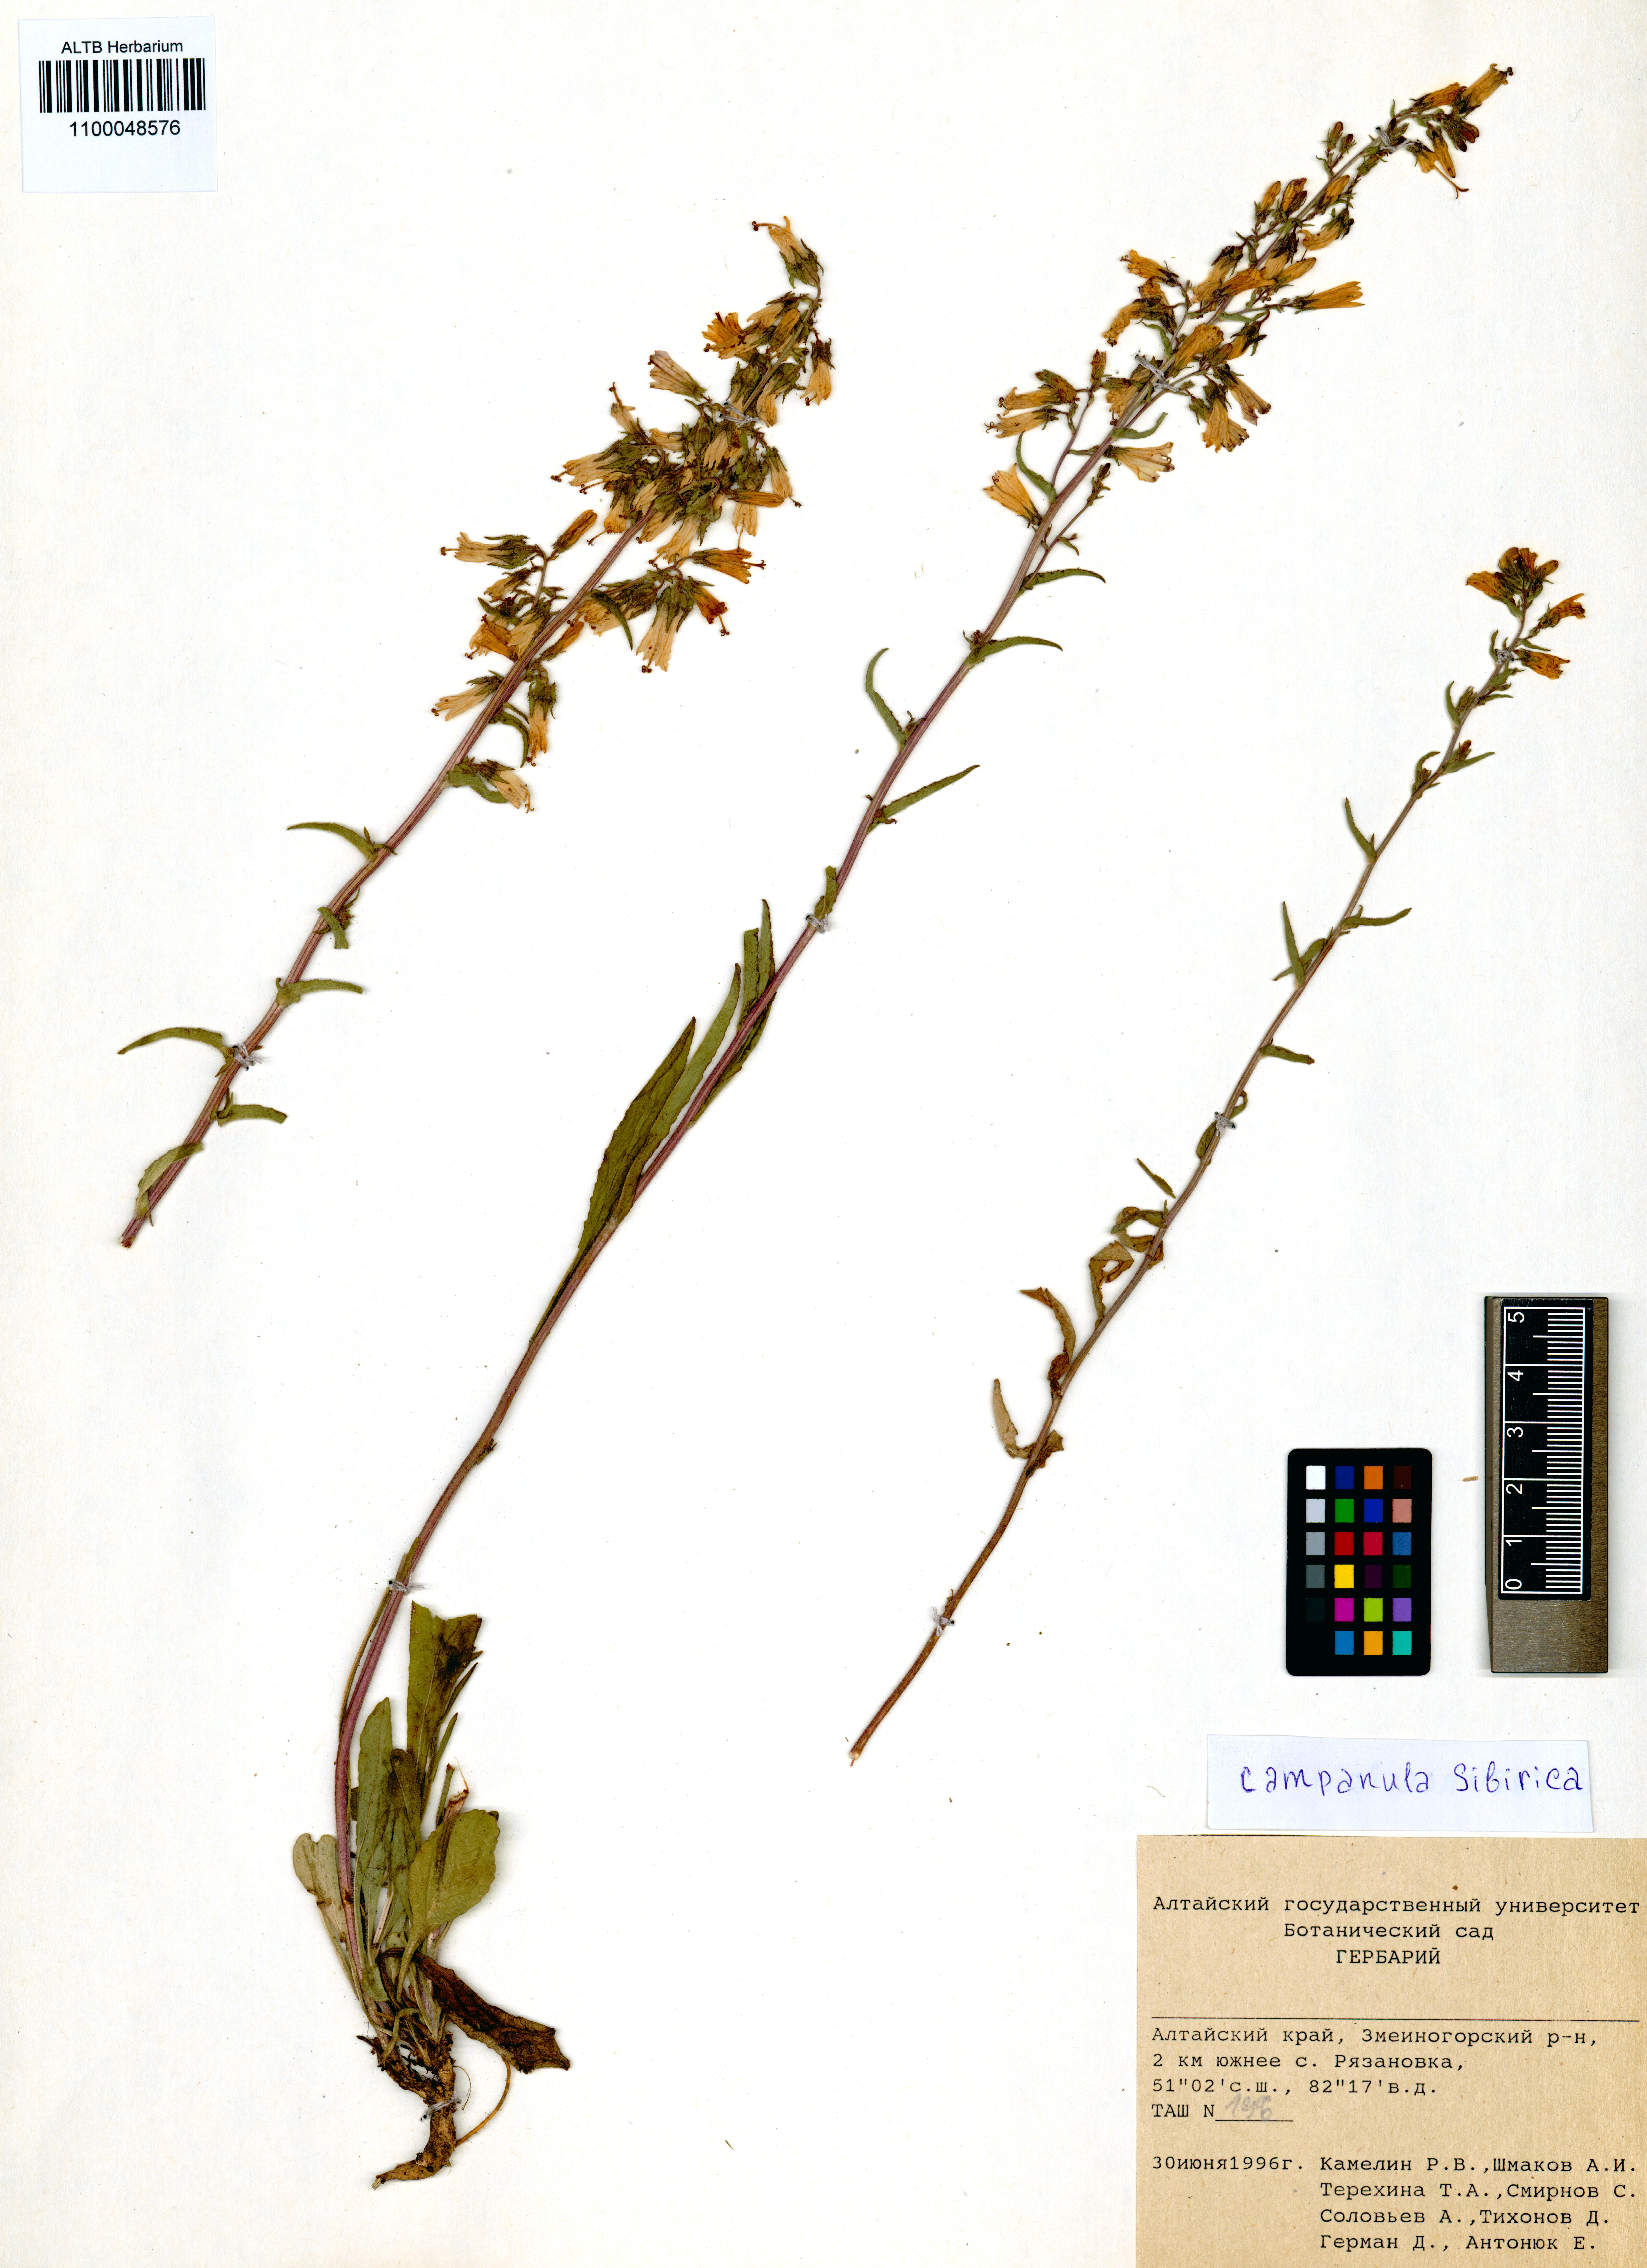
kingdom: Plantae
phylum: Tracheophyta
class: Magnoliopsida
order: Asterales
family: Campanulaceae
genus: Campanula
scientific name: Campanula sibirica
